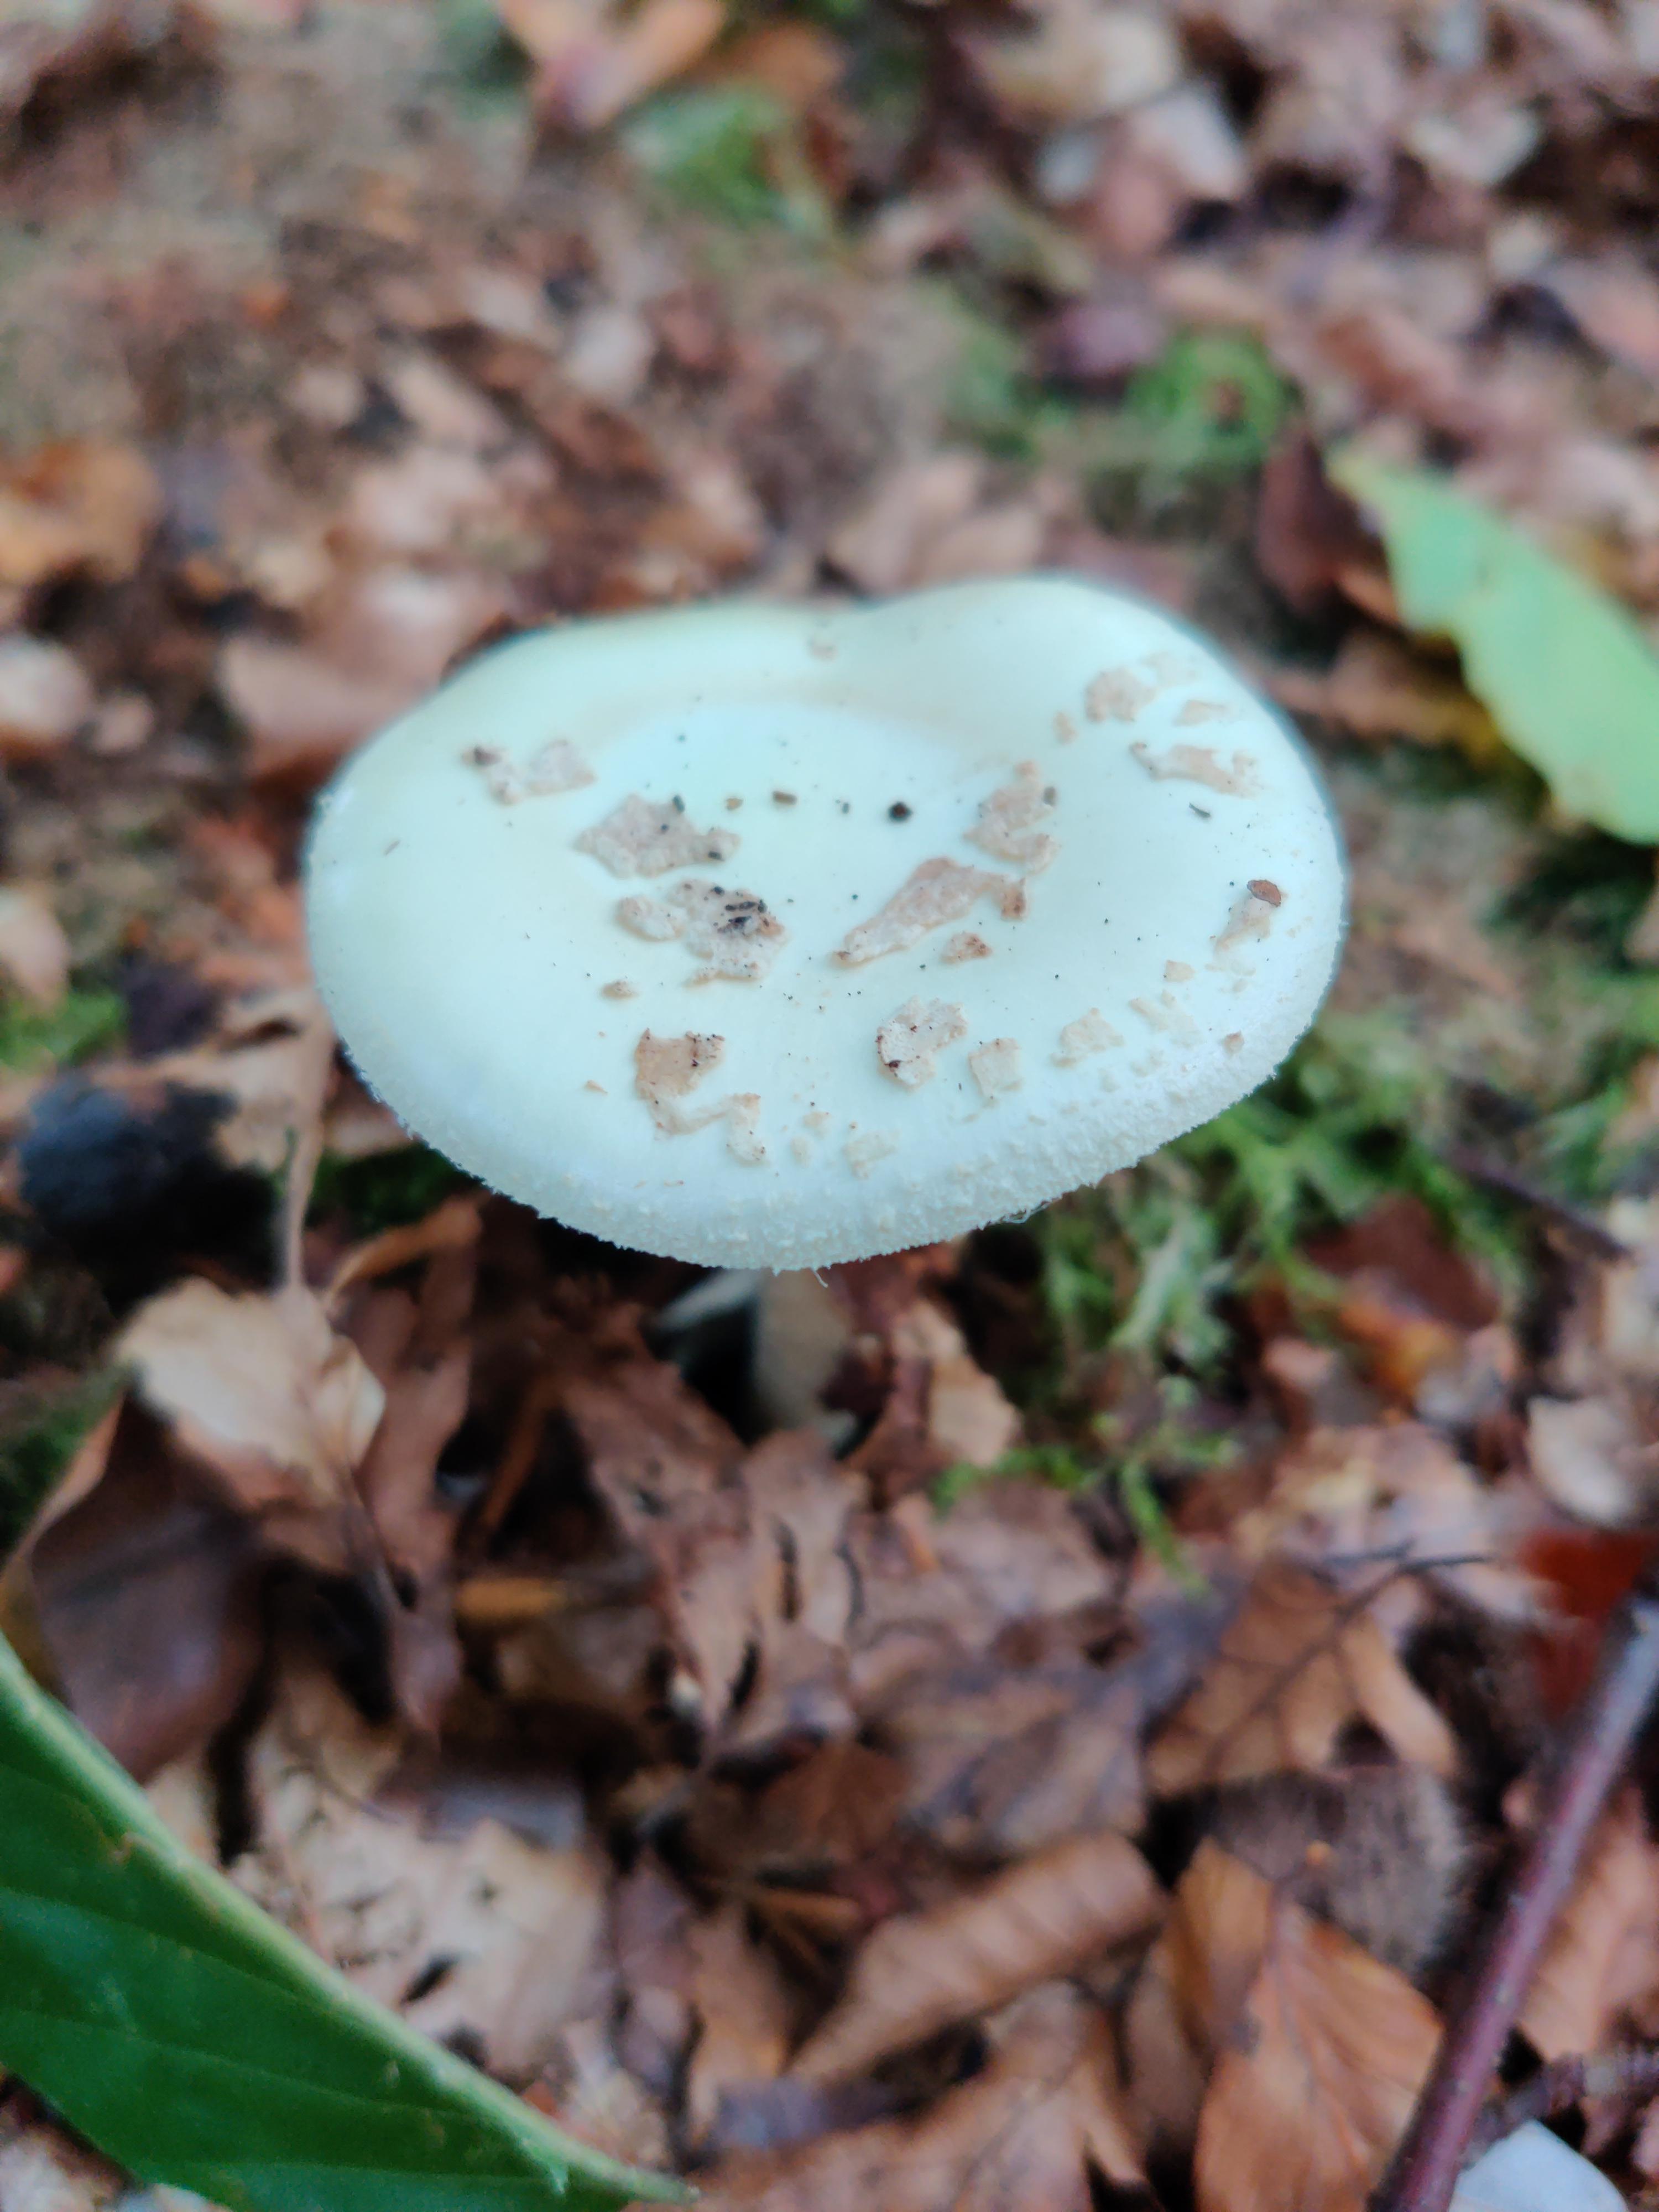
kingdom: Fungi
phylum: Basidiomycota
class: Agaricomycetes
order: Agaricales
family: Amanitaceae
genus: Amanita
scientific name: Amanita citrina
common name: kugleknoldet fluesvamp
